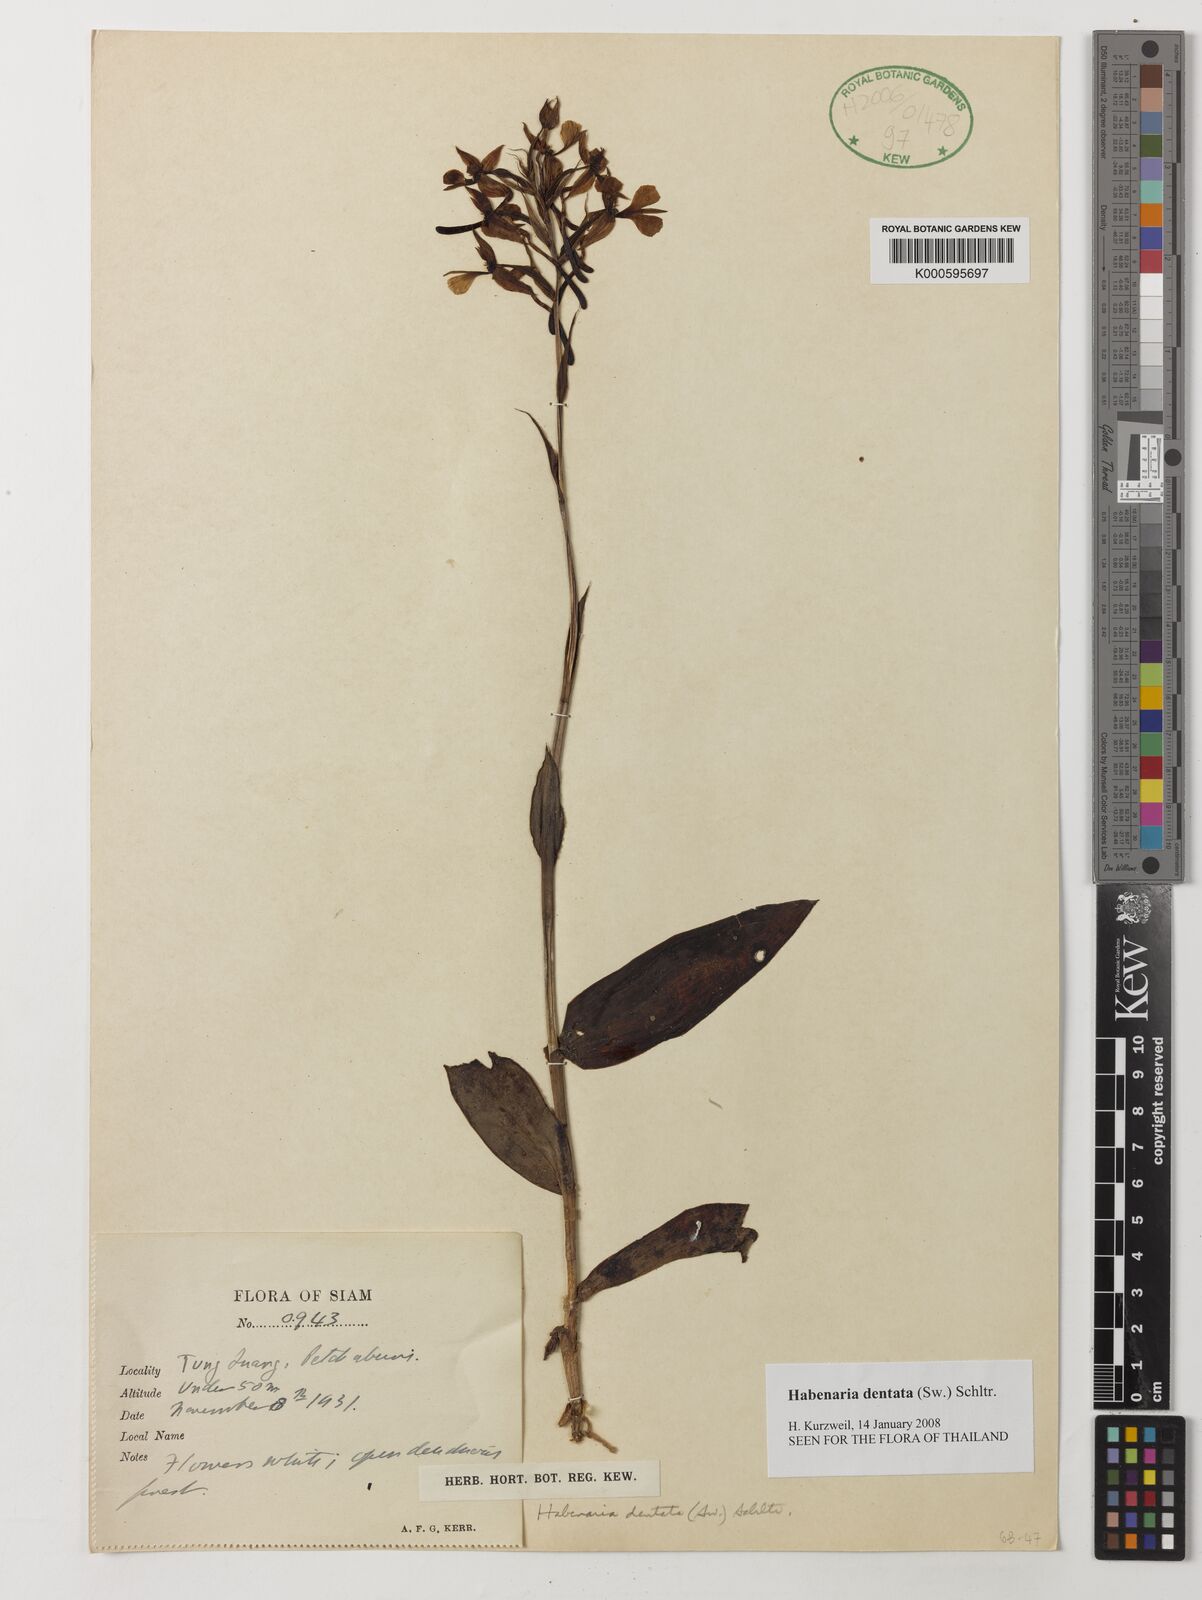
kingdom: Plantae
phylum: Tracheophyta
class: Liliopsida
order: Asparagales
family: Orchidaceae
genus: Habenaria
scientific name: Habenaria dentata
